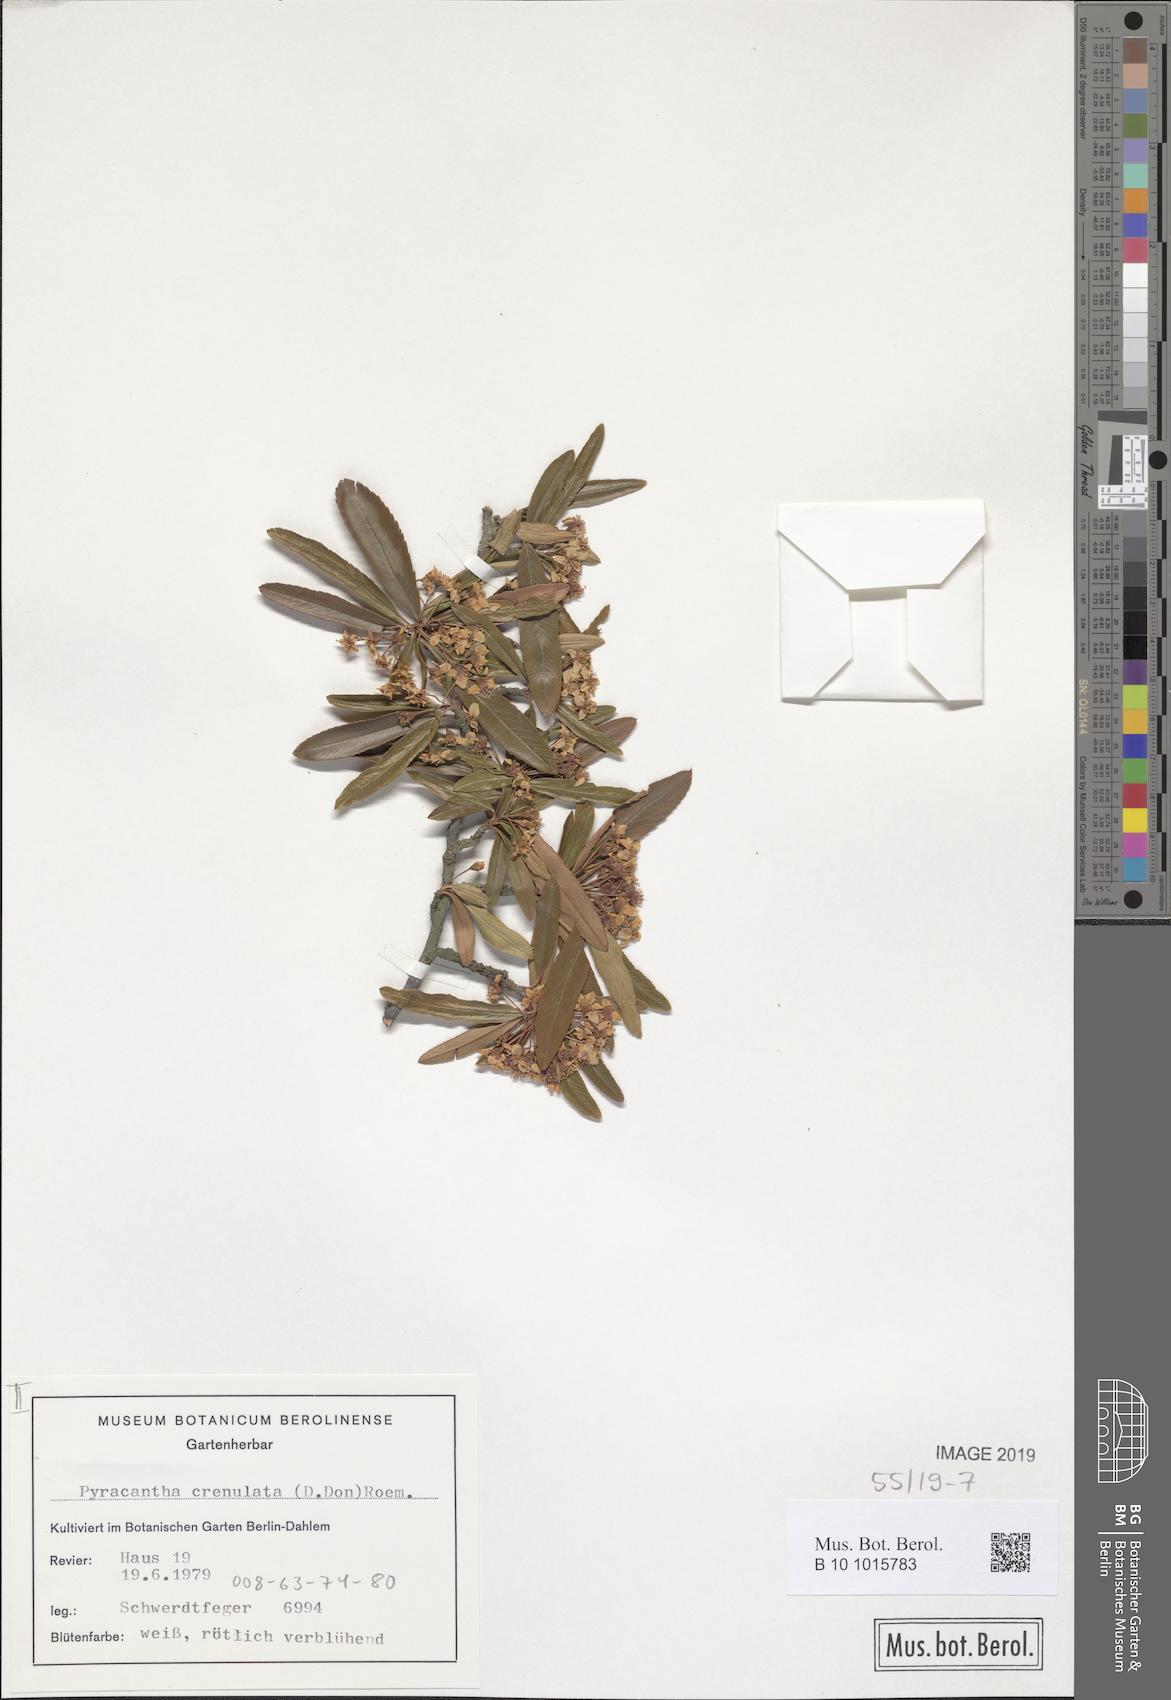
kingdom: Plantae
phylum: Tracheophyta
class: Magnoliopsida
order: Rosales
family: Rosaceae
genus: Pyracantha
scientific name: Pyracantha crenulata
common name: Nepalese firethorn
